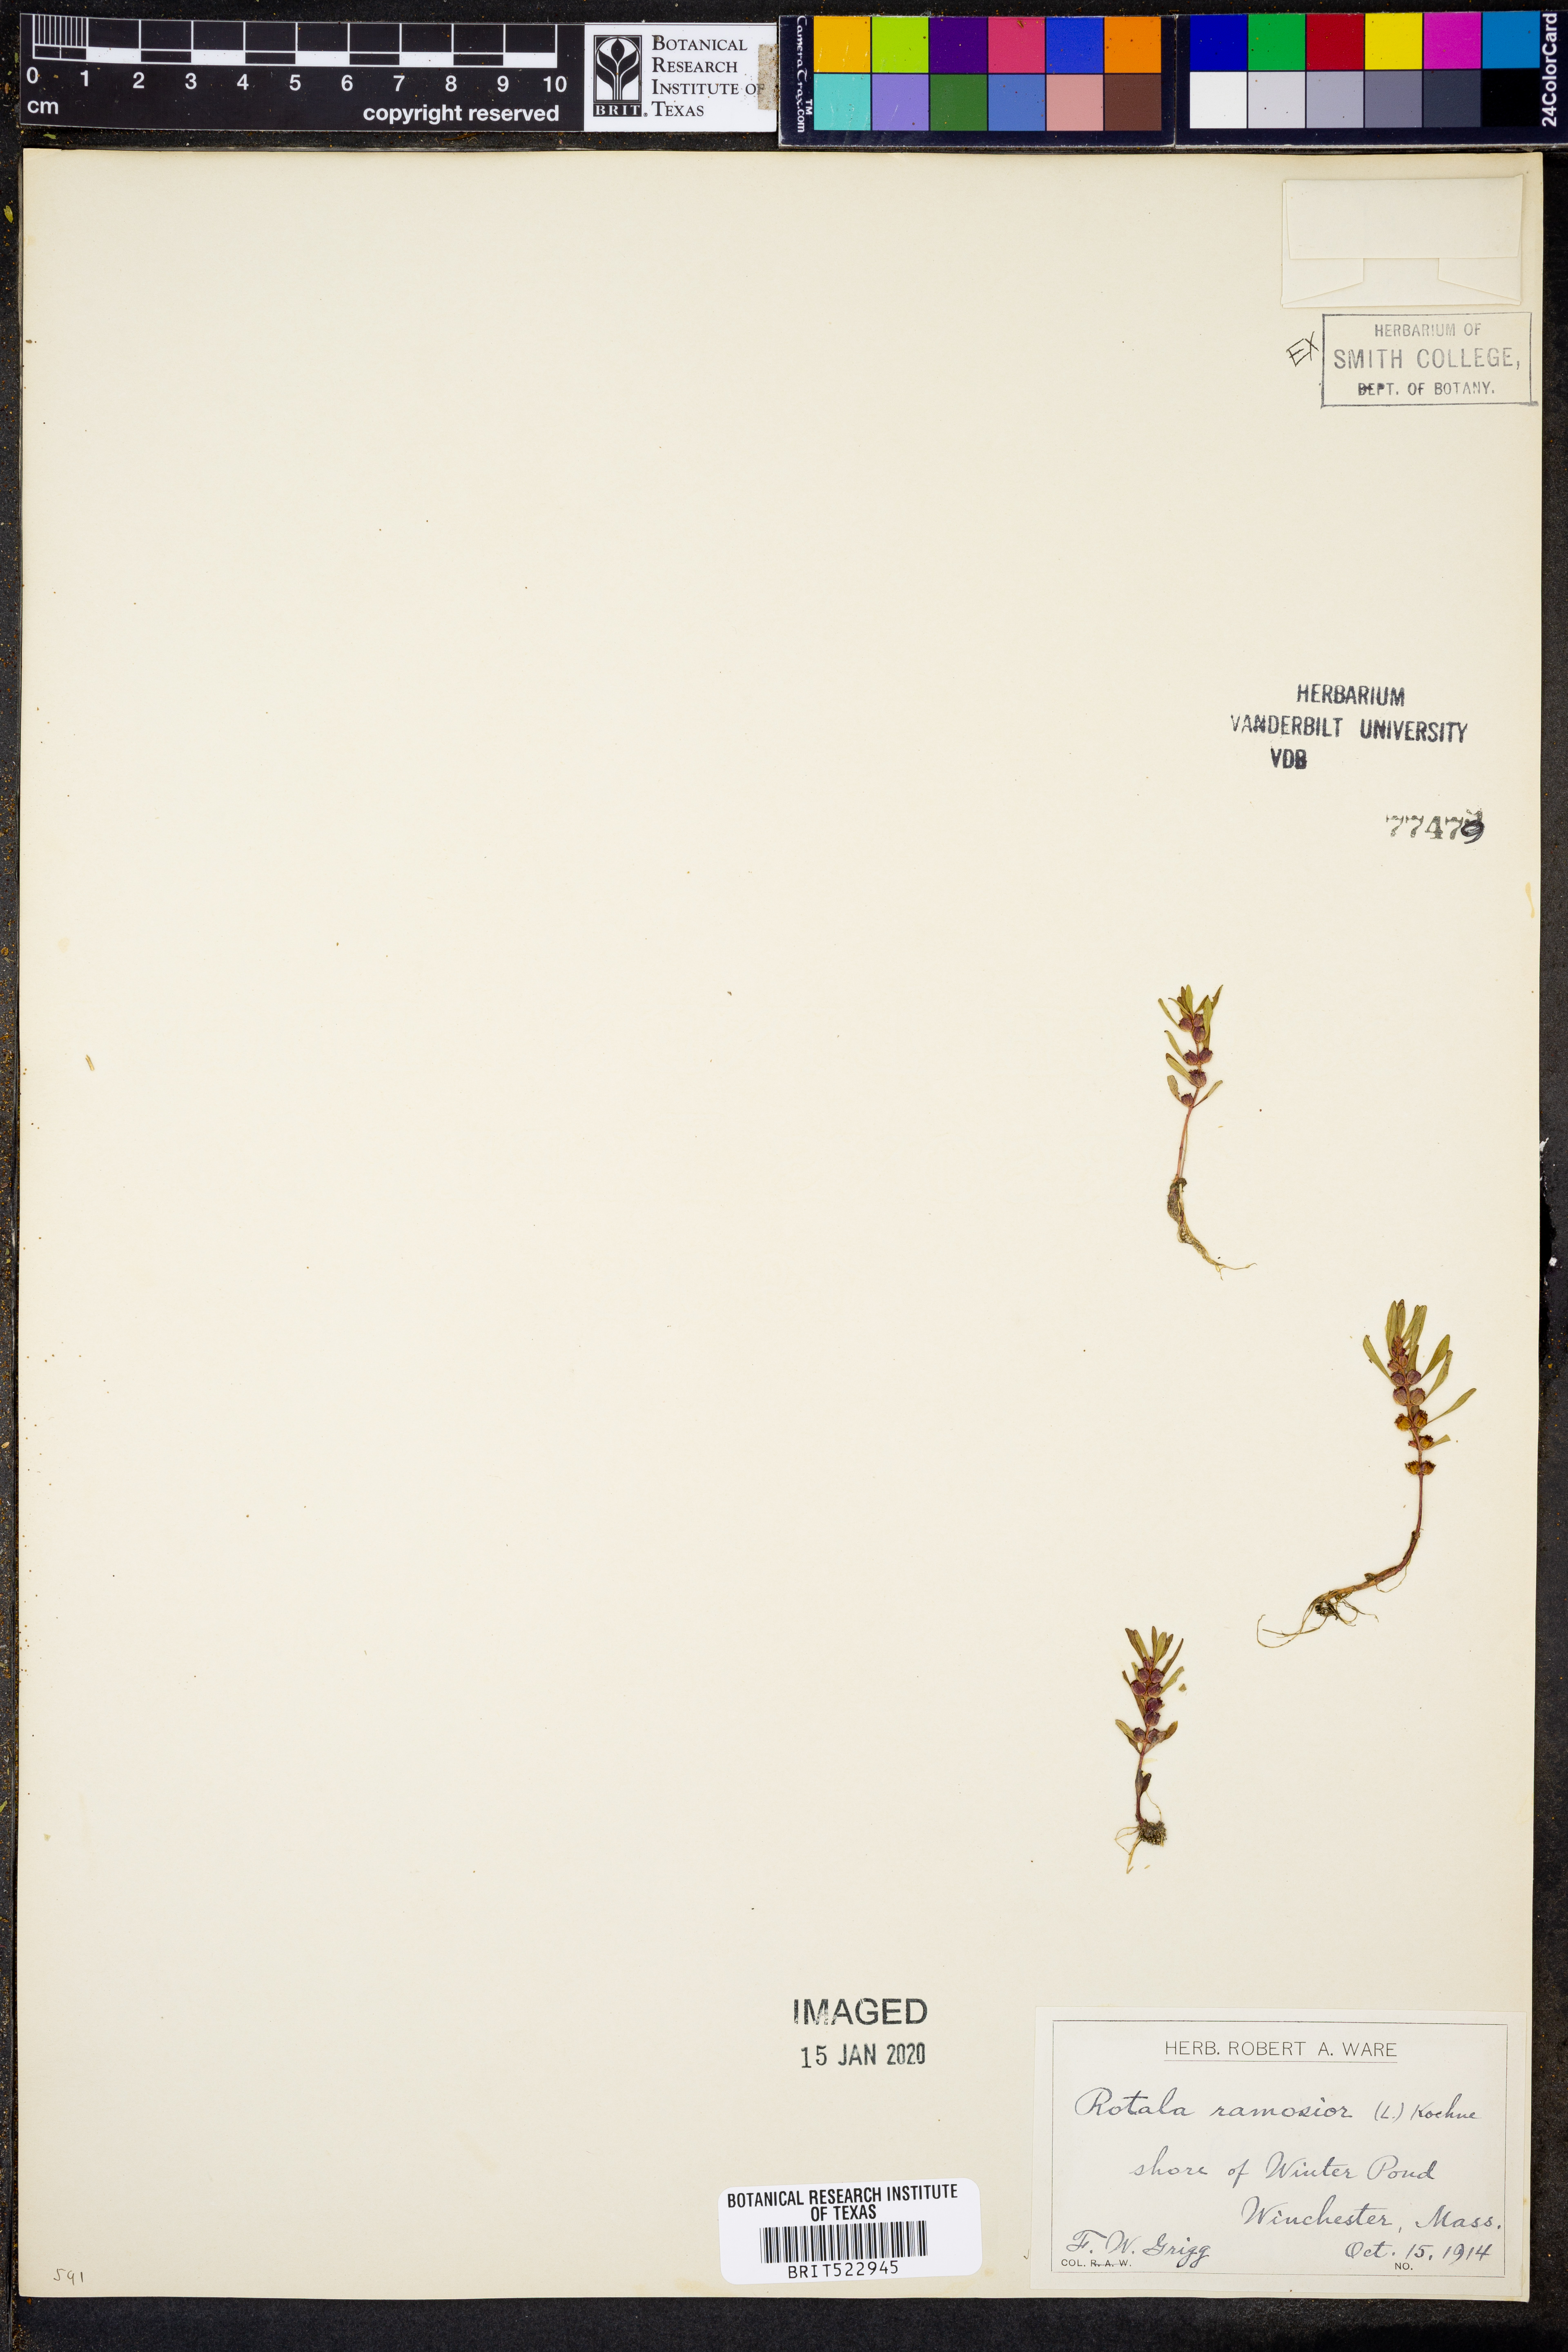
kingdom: Plantae
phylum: Tracheophyta
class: Magnoliopsida
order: Myrtales
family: Lythraceae
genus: Rotala
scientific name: Rotala ramosior
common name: Lowland rotala
